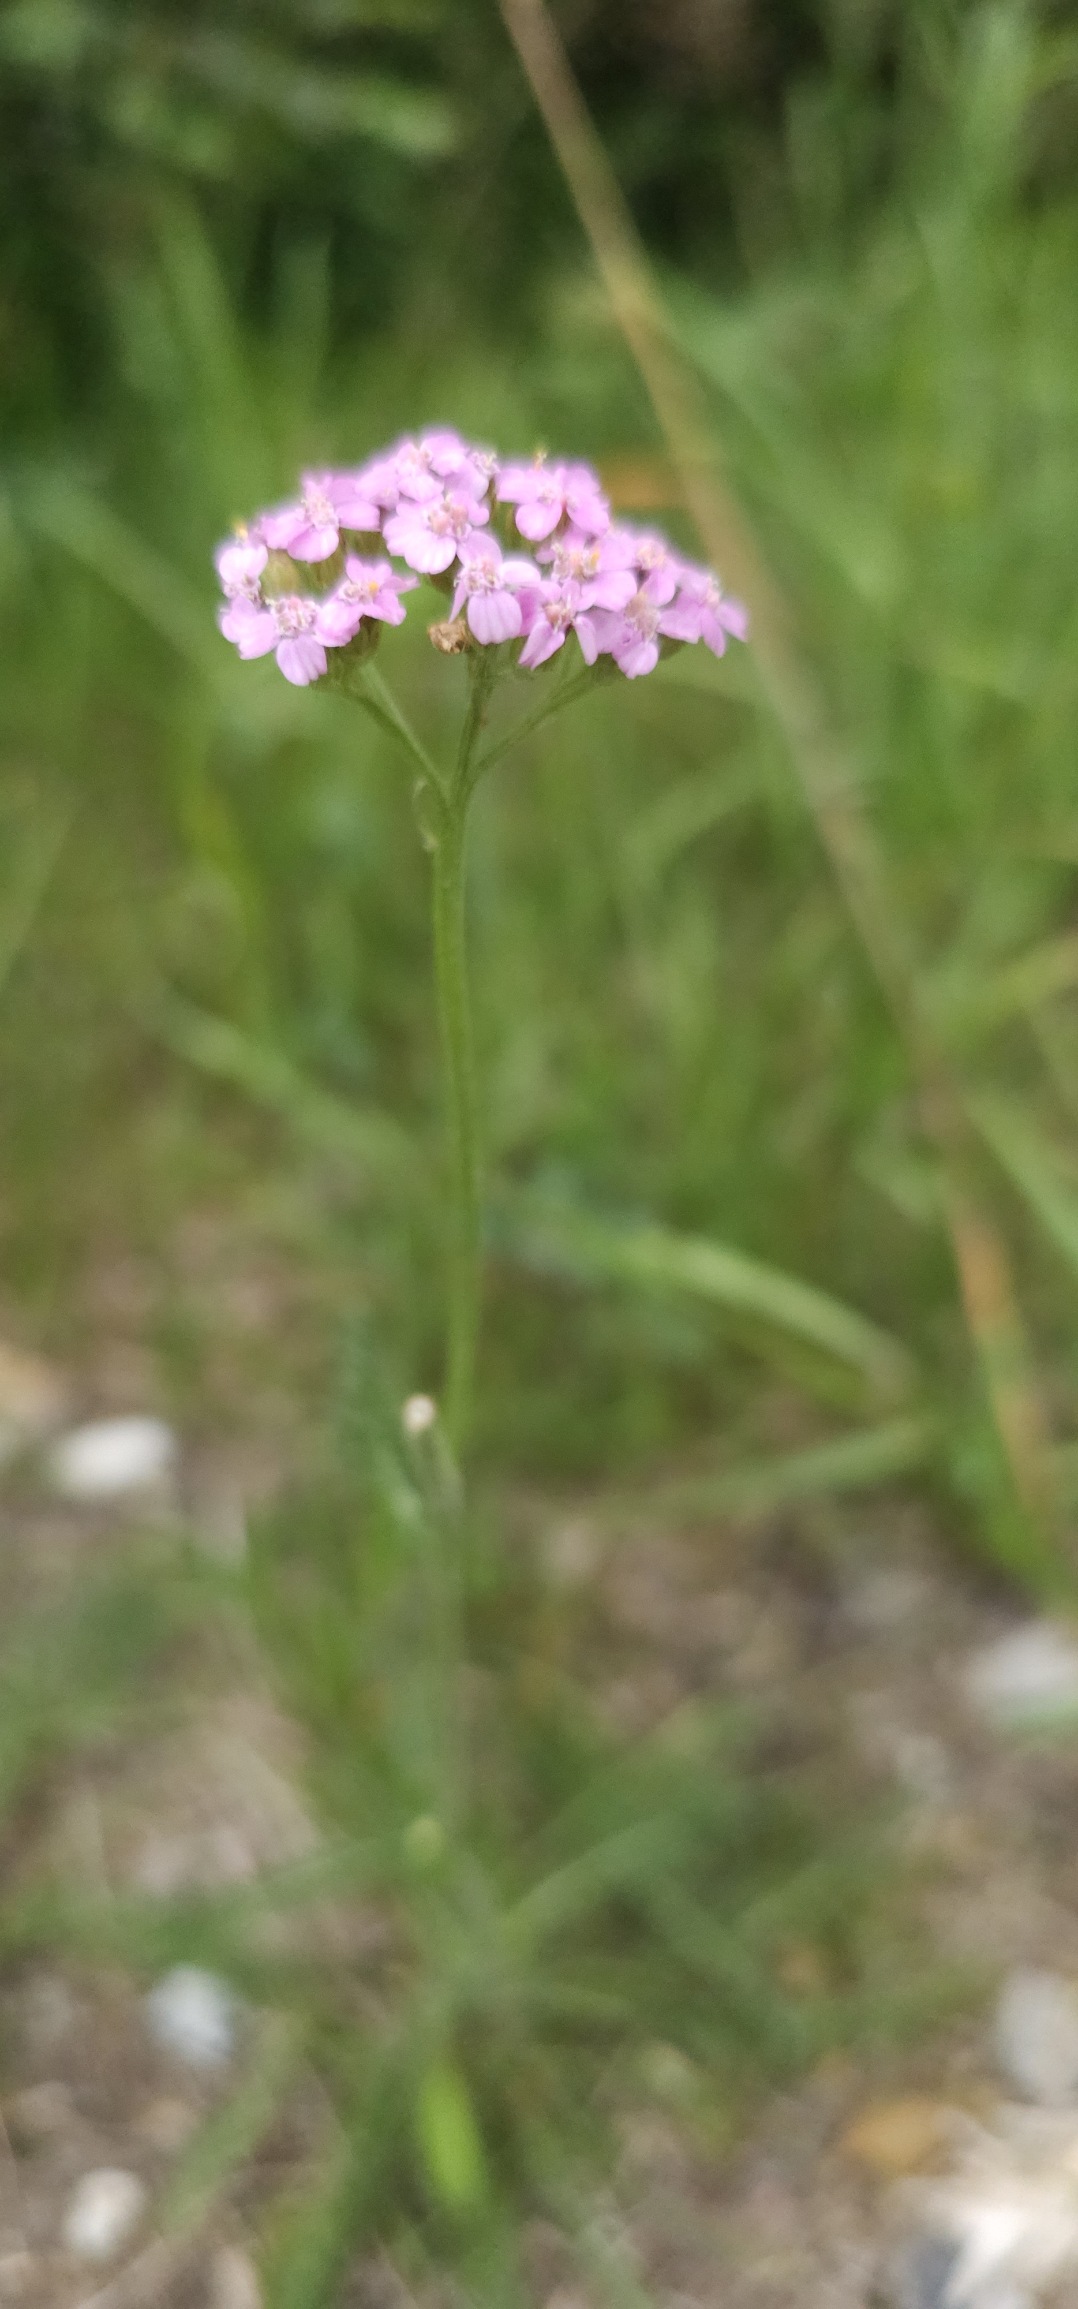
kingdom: Plantae
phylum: Tracheophyta
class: Magnoliopsida
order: Asterales
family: Asteraceae
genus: Achillea
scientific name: Achillea millefolium
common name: Almindelig røllike
